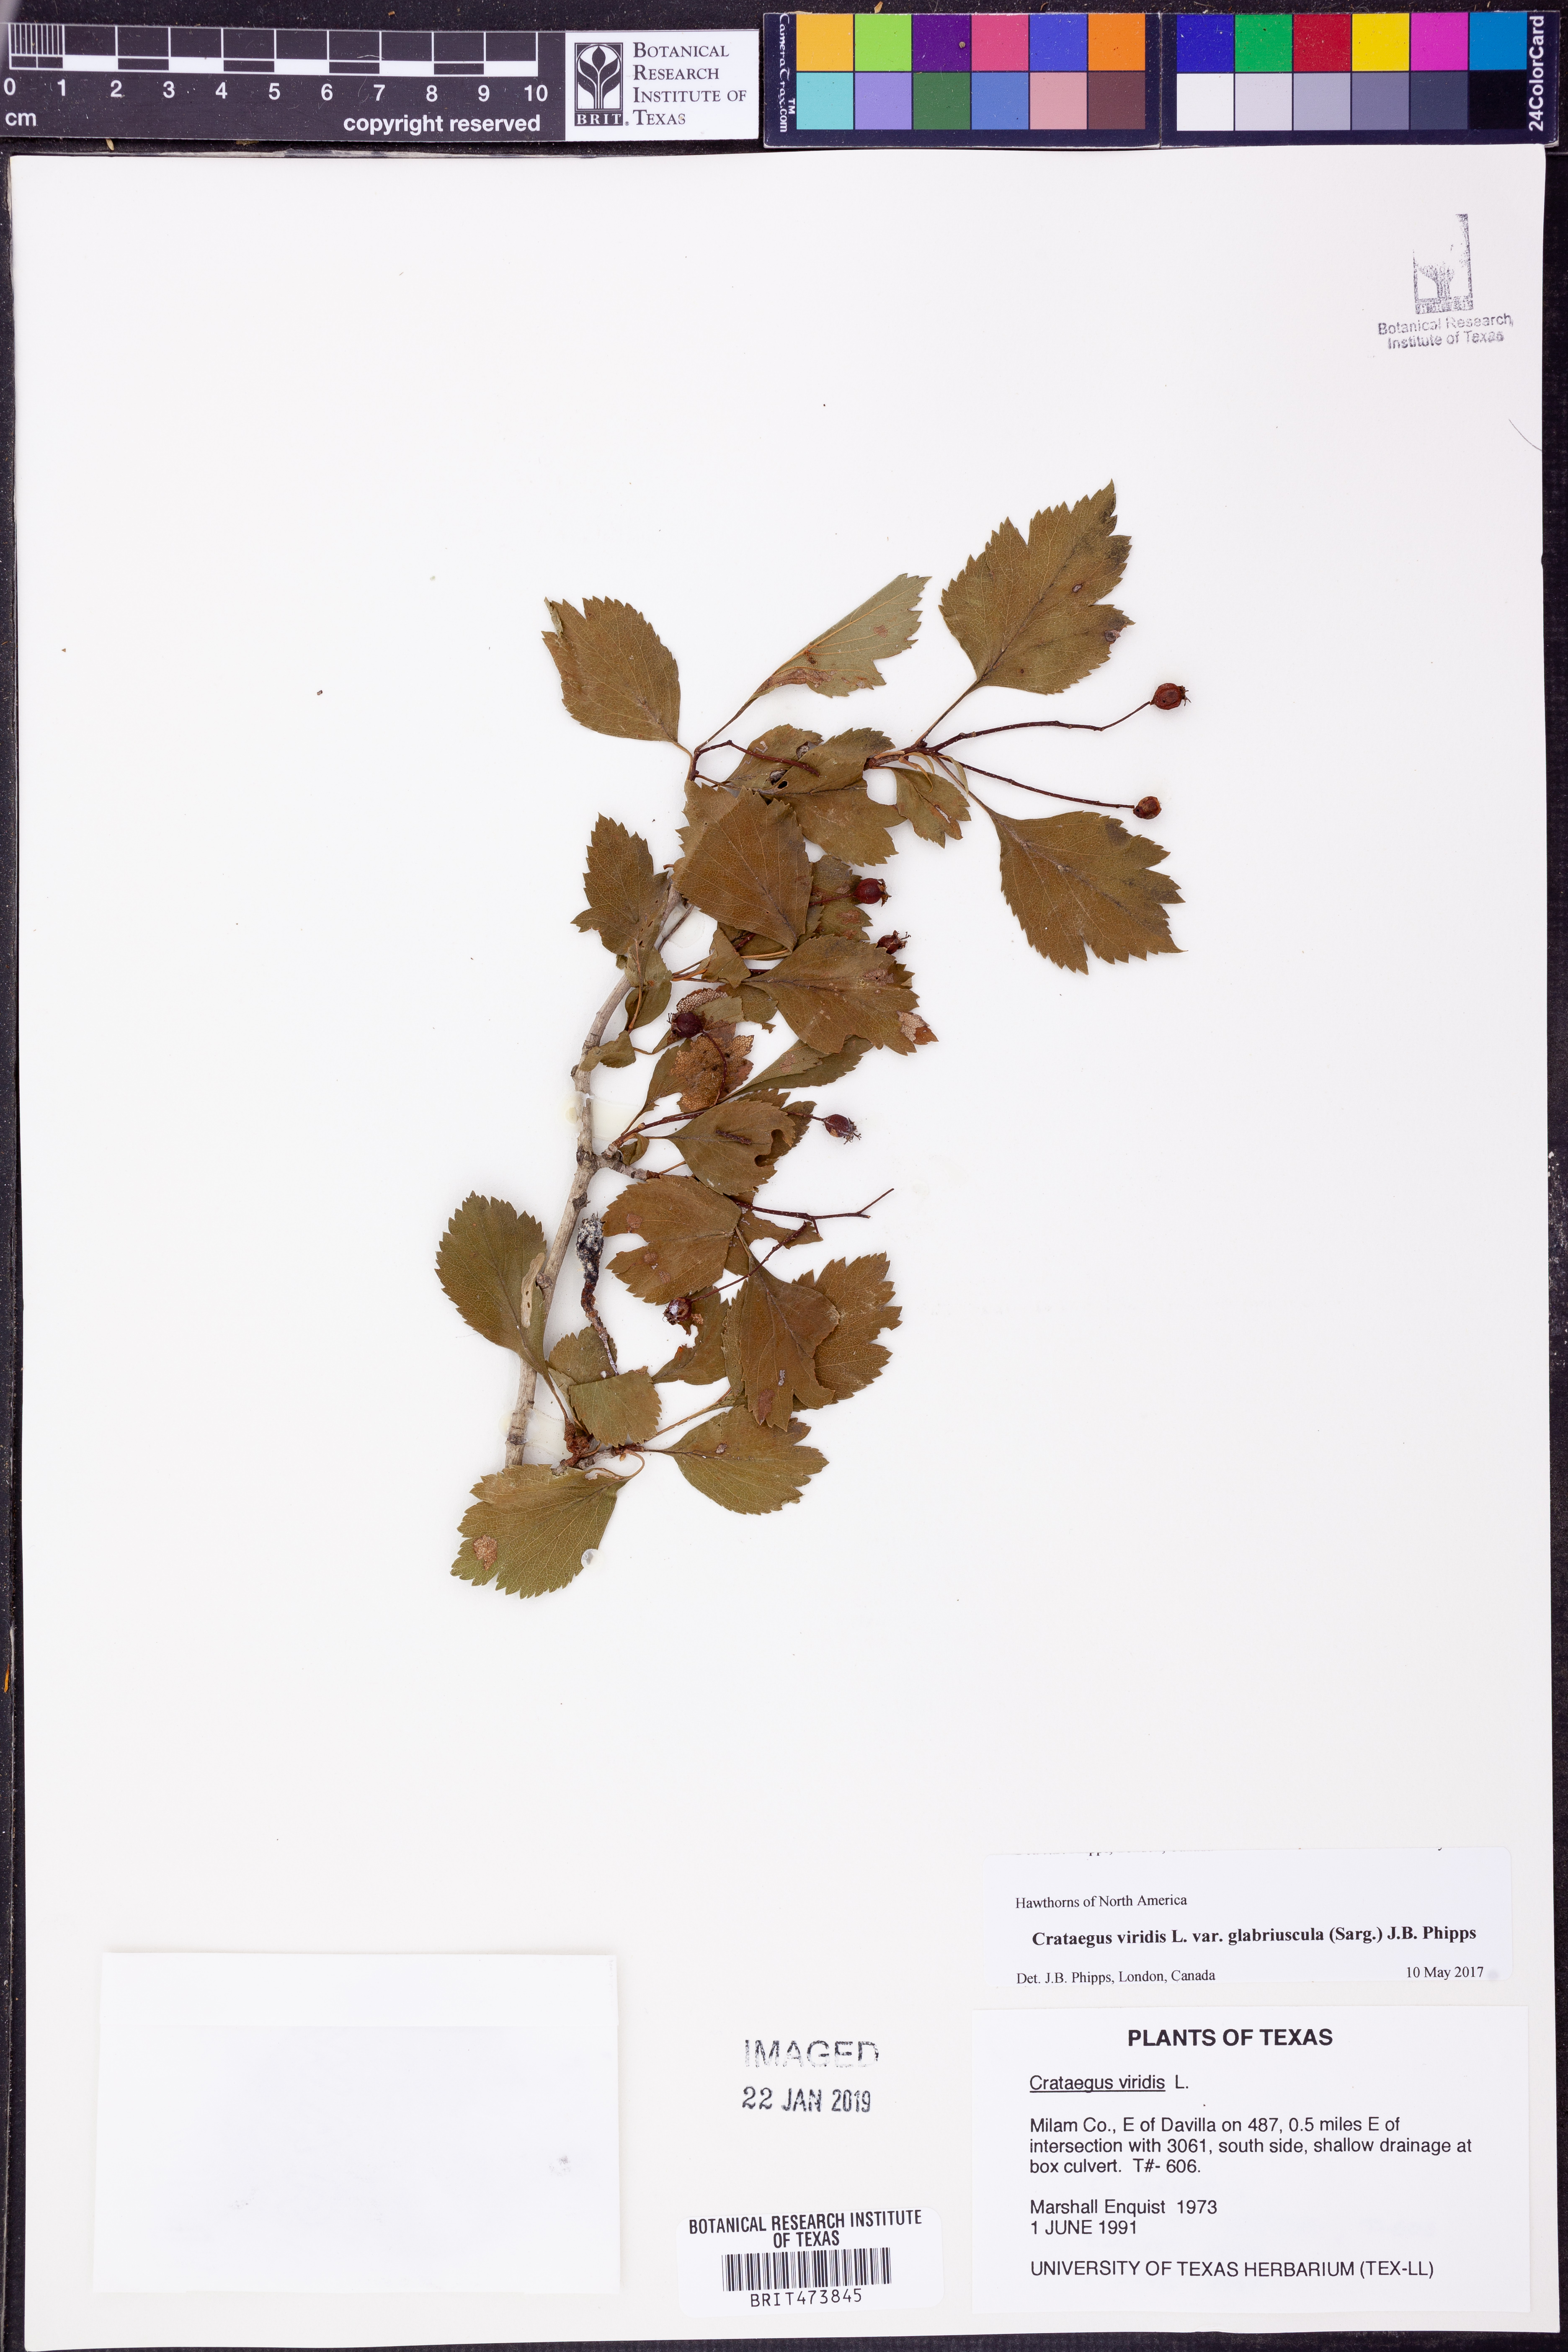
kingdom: Plantae
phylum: Tracheophyta
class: Magnoliopsida
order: Rosales
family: Rosaceae
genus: Crataegus
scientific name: Crataegus viridis
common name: Southernthorn
